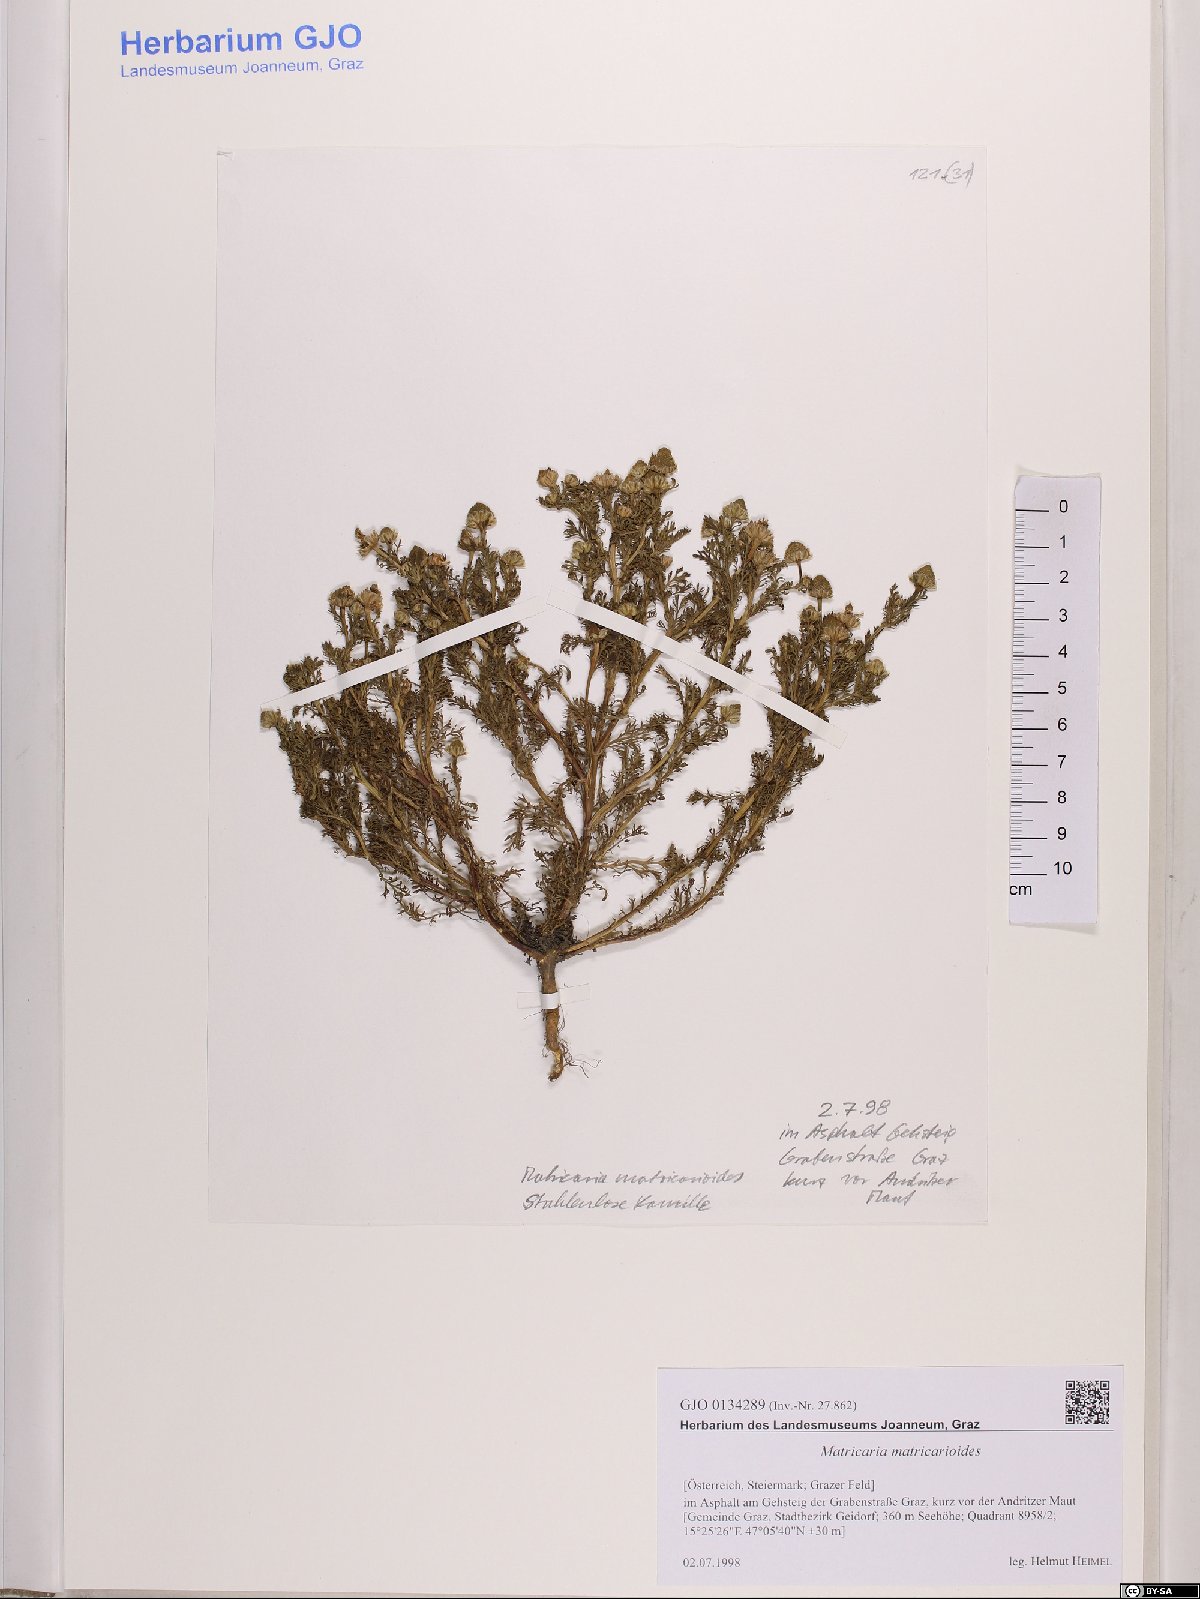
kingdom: Plantae
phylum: Tracheophyta
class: Magnoliopsida
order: Asterales
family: Asteraceae
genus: Matricaria
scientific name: Matricaria discoidea
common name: Disc mayweed
